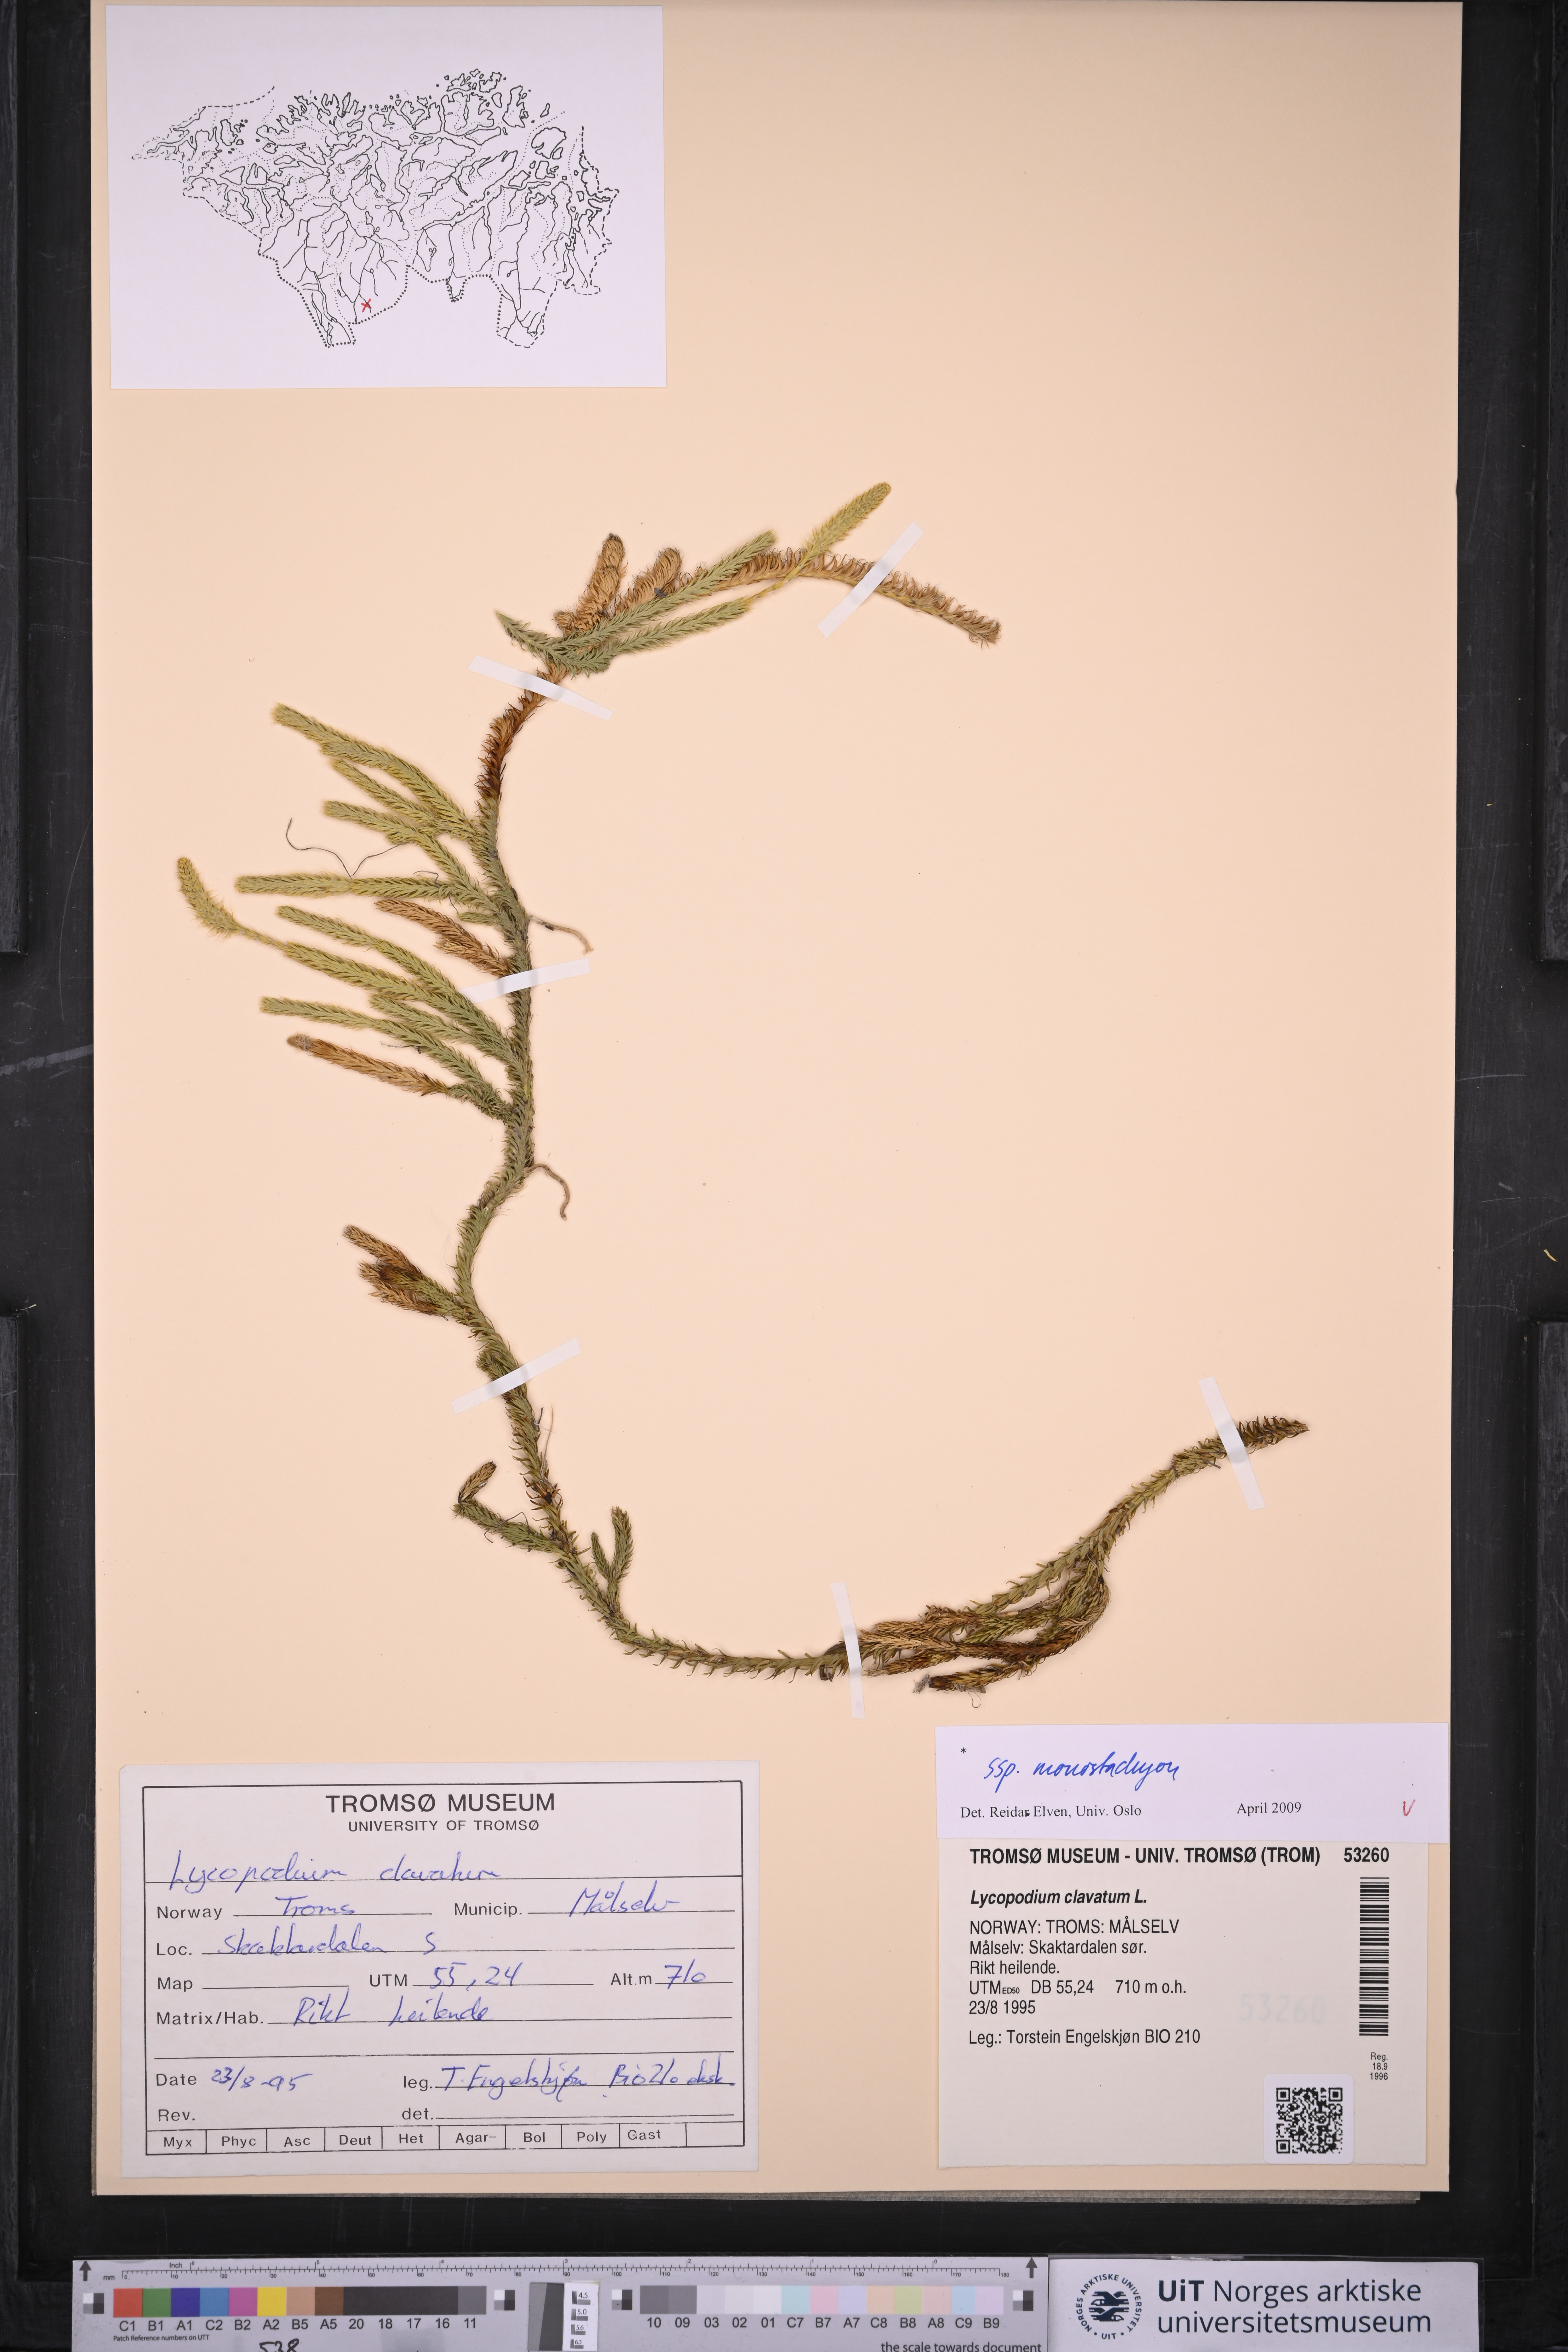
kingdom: Plantae
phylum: Tracheophyta
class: Lycopodiopsida
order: Lycopodiales
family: Lycopodiaceae
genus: Lycopodium
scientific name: Lycopodium lagopus
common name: One-cone clubmoss
